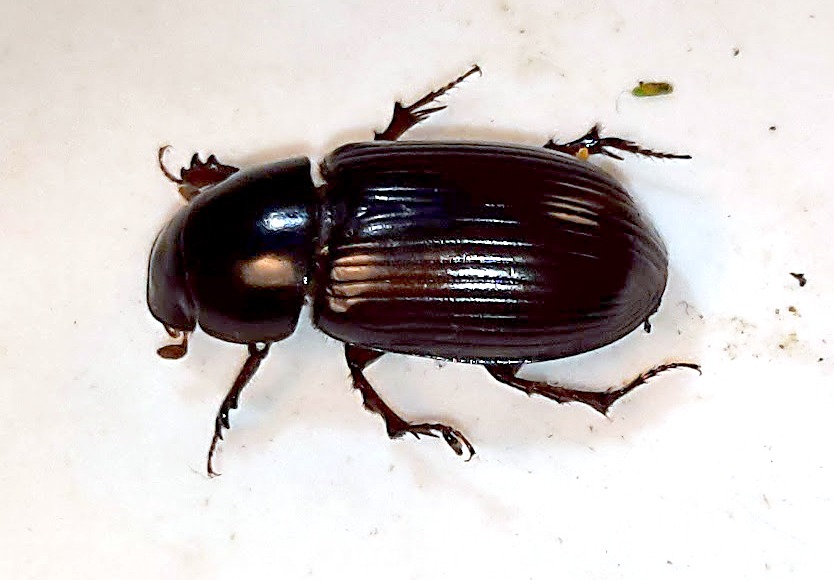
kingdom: Animalia
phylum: Arthropoda
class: Insecta
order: Coleoptera
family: Scarabaeidae
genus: Acrossus
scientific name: Acrossus rufipes
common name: Rødbenet møgbille
